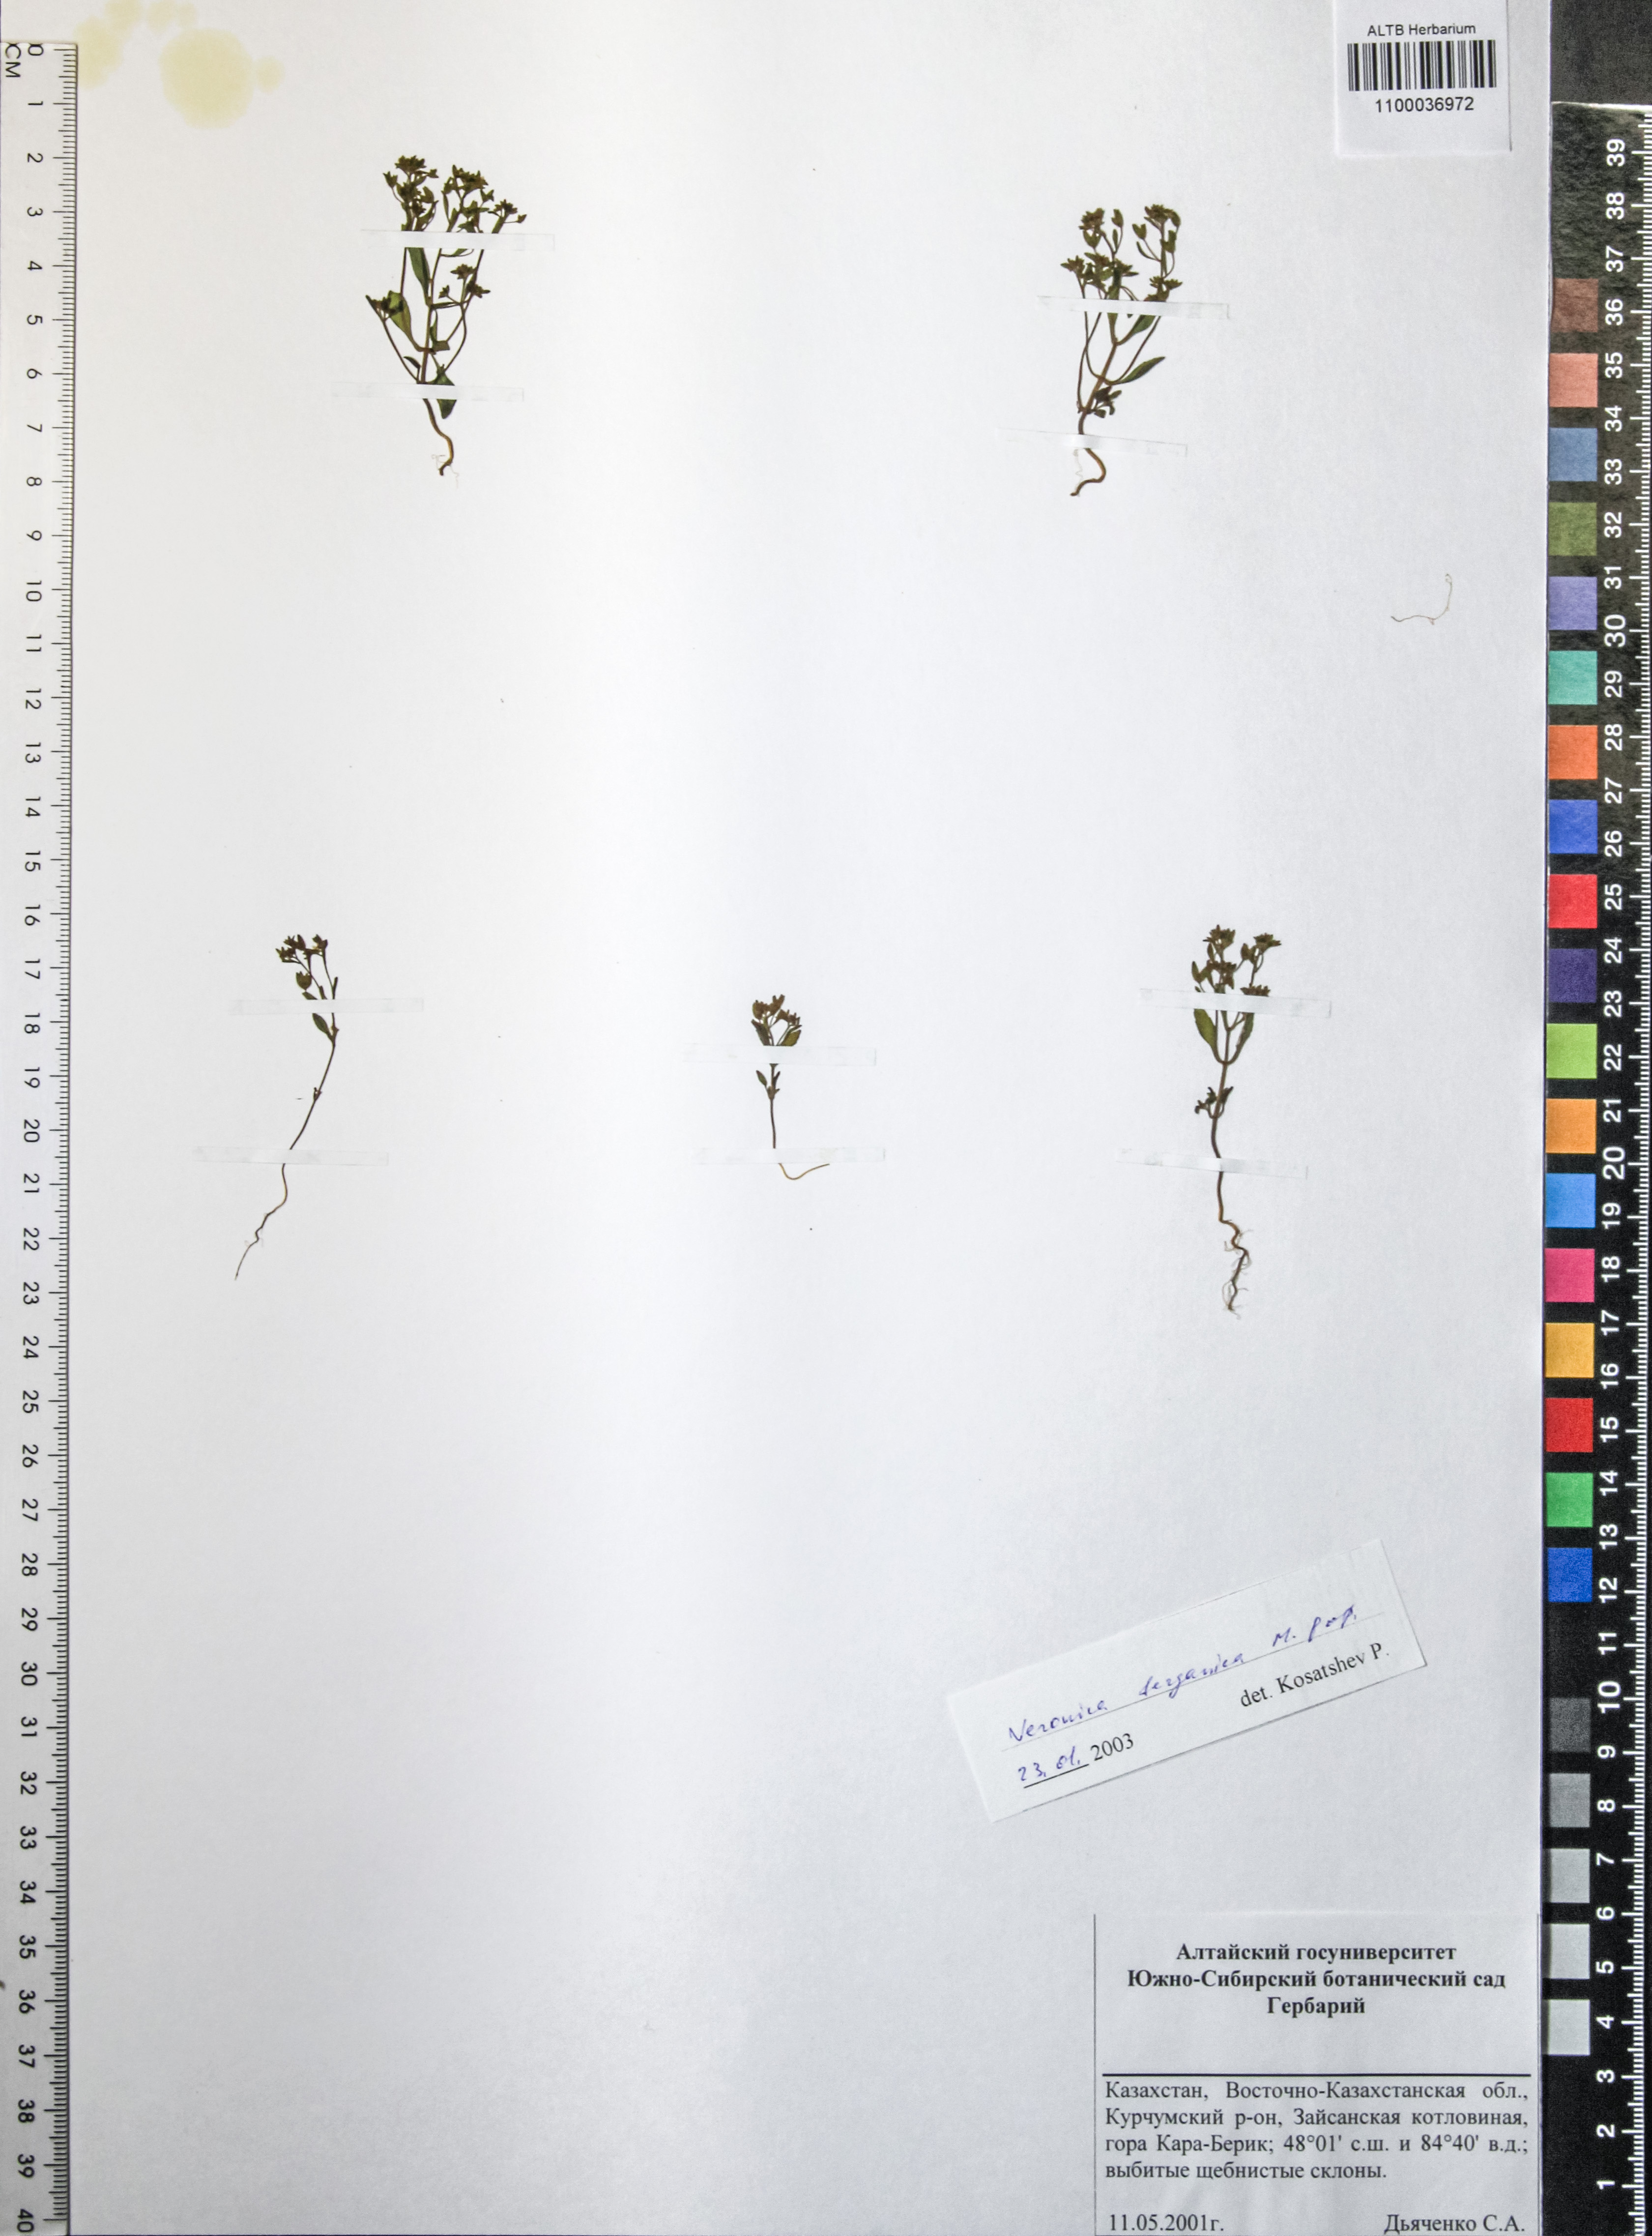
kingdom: Plantae
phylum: Tracheophyta
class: Magnoliopsida
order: Lamiales
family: Plantaginaceae
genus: Veronica
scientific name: Veronica ferganica
